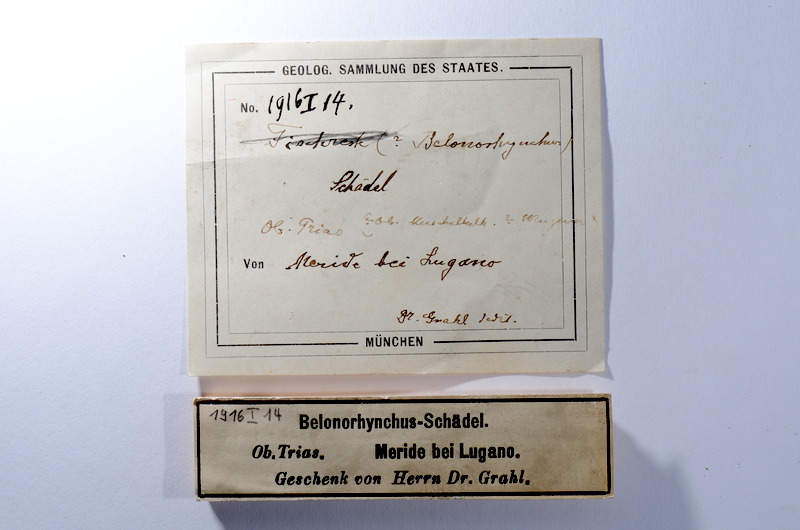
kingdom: Animalia
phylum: Chordata
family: Saurichthyidae
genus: Saurorhynchus
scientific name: Saurorhynchus
